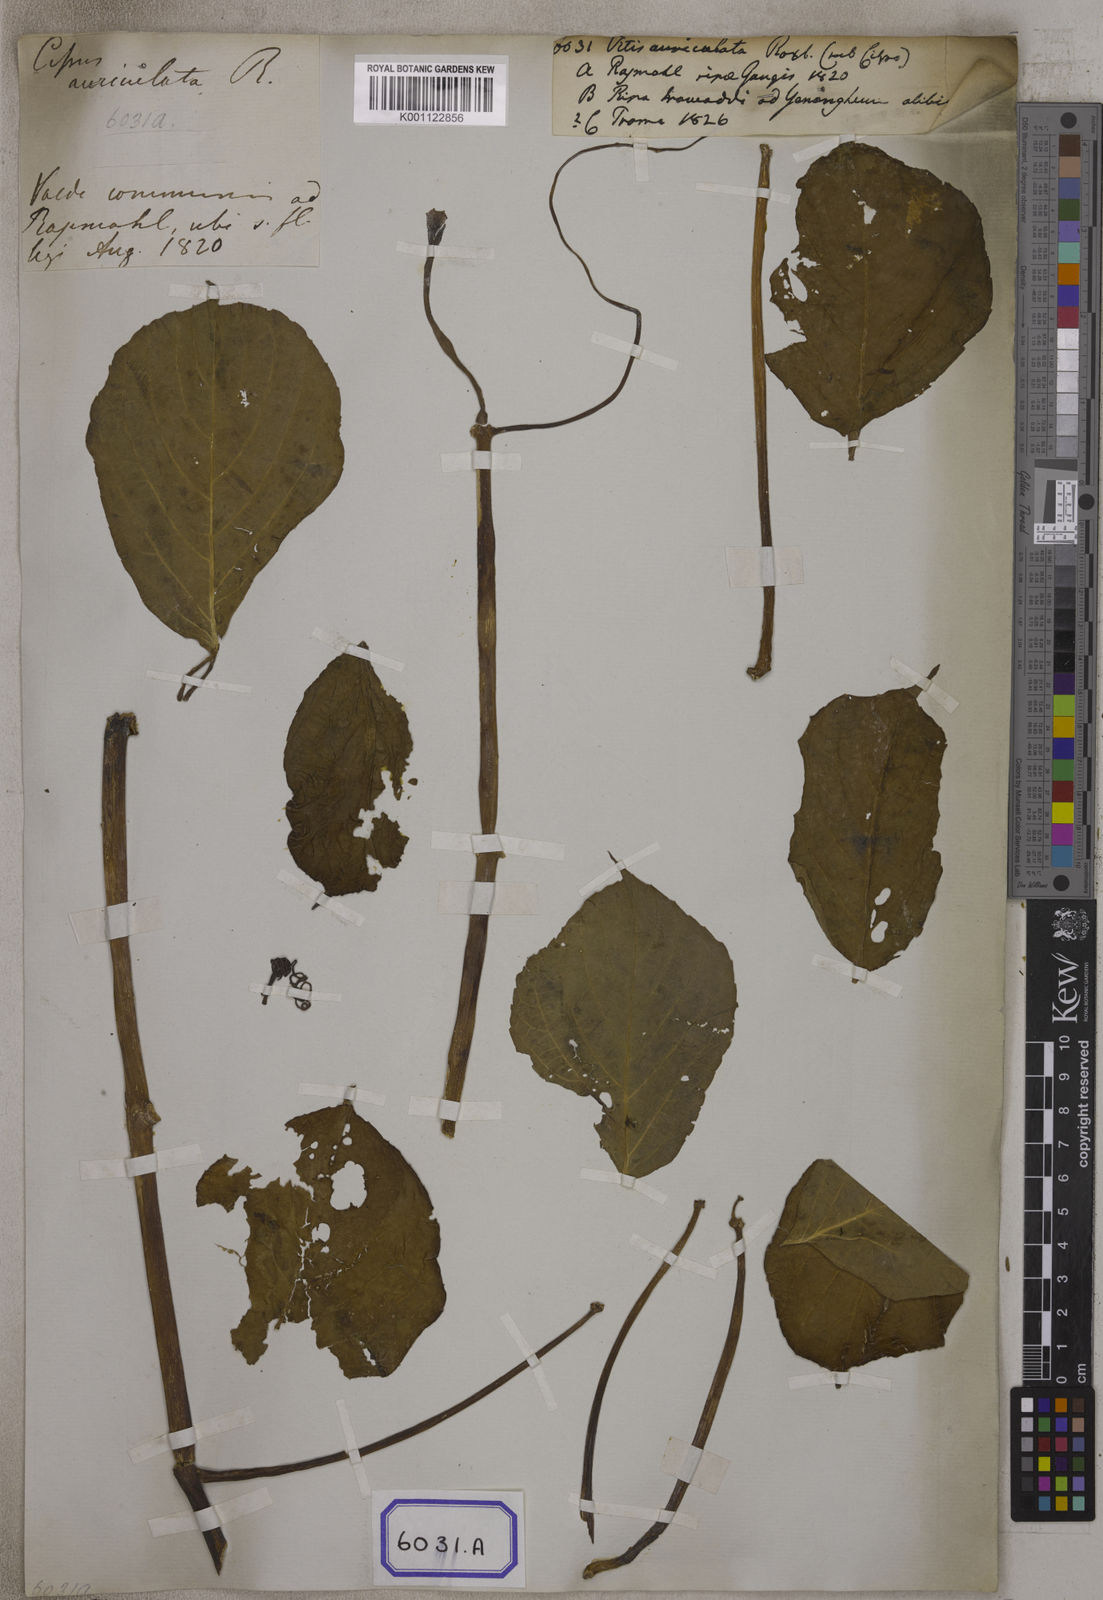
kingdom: Plantae
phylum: Tracheophyta
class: Magnoliopsida
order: Vitales
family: Vitaceae
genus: Cayratia
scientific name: Cayratia auriculata
